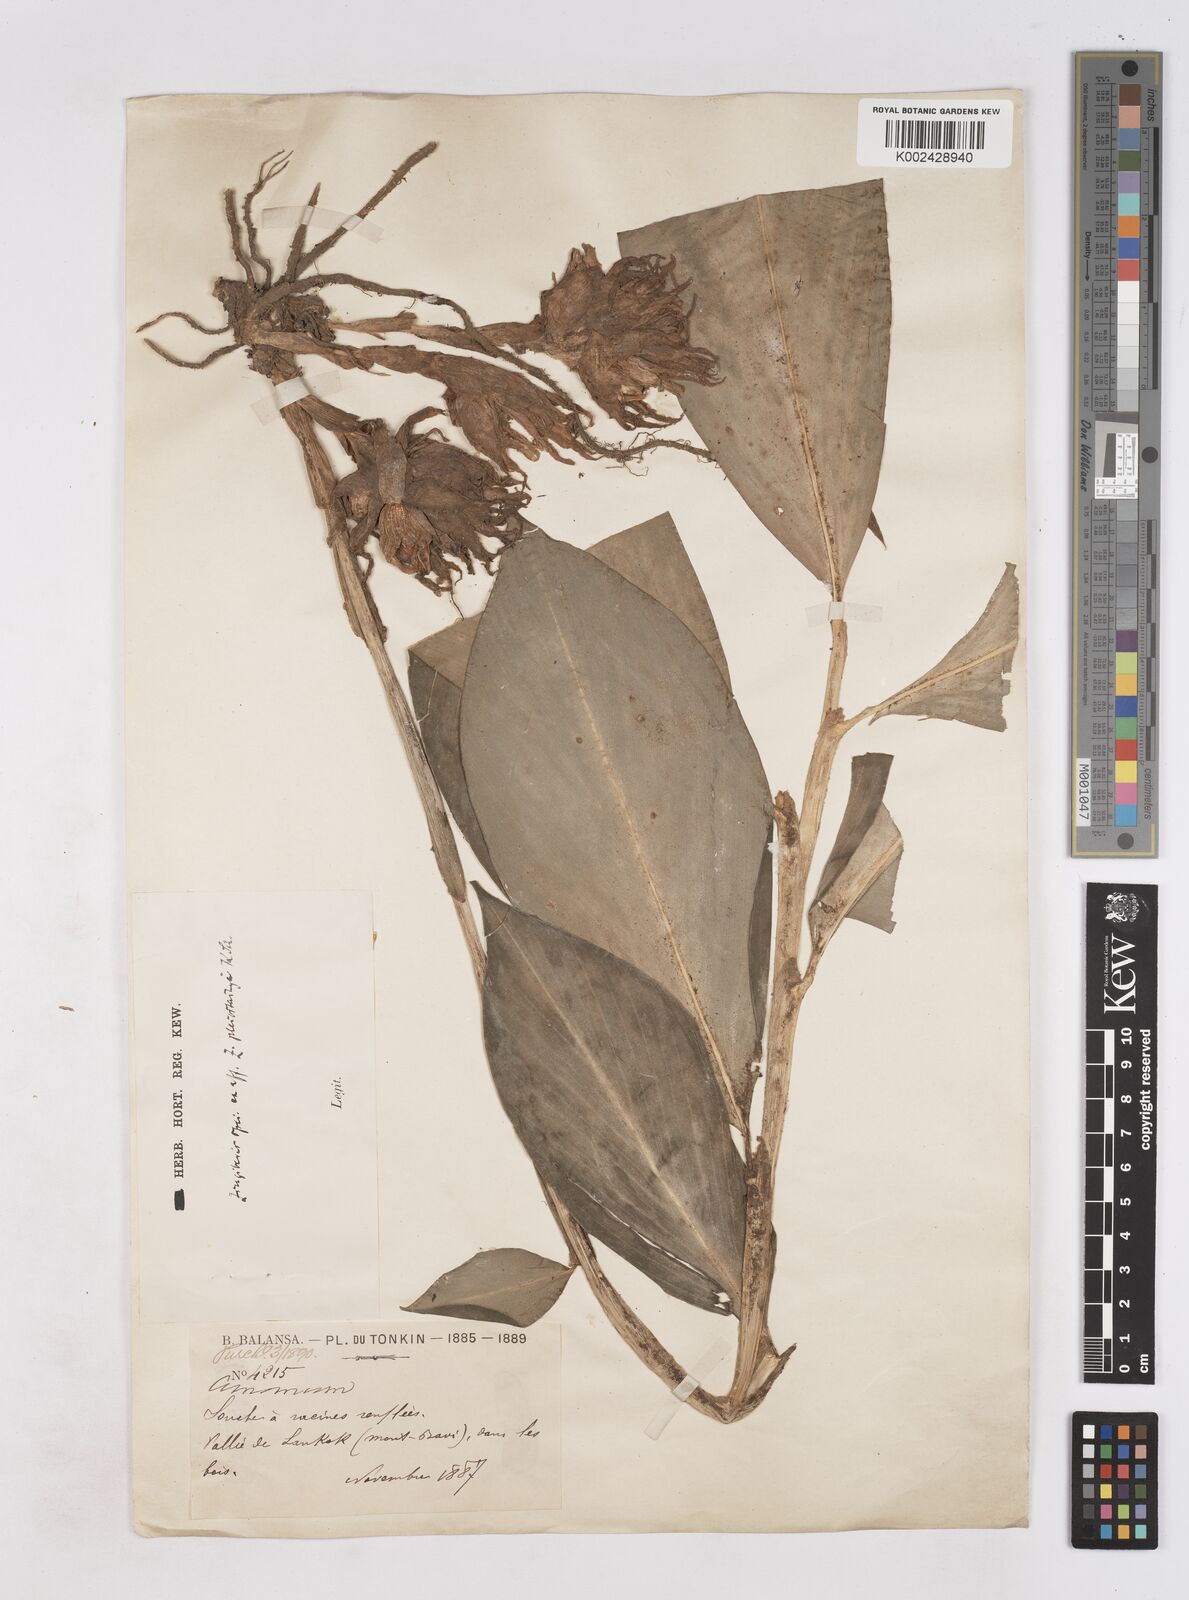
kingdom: Plantae
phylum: Tracheophyta
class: Liliopsida
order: Zingiberales
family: Zingiberaceae
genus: Zingiber
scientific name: Zingiber pleiostachyum
